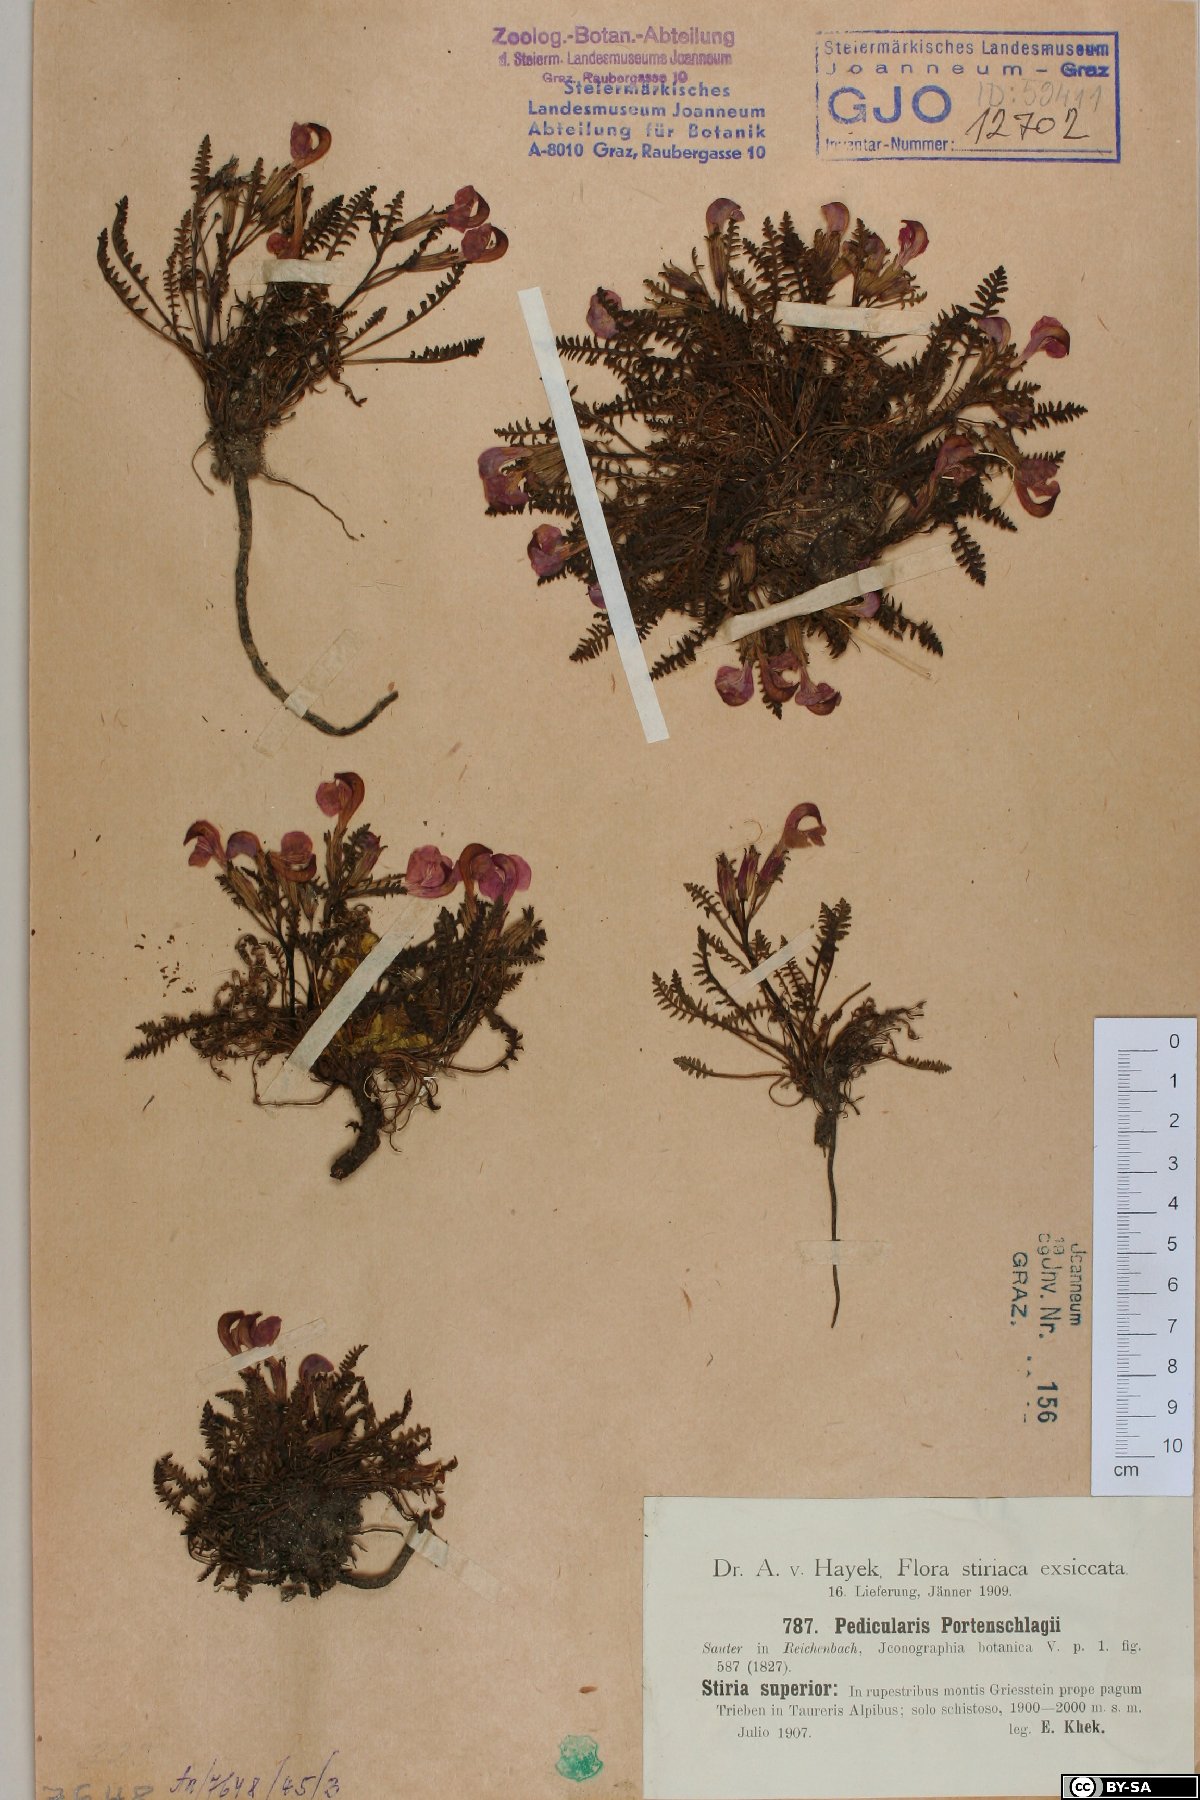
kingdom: Plantae
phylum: Tracheophyta
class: Magnoliopsida
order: Lamiales
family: Orobanchaceae
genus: Pedicularis
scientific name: Pedicularis portenschlagii
